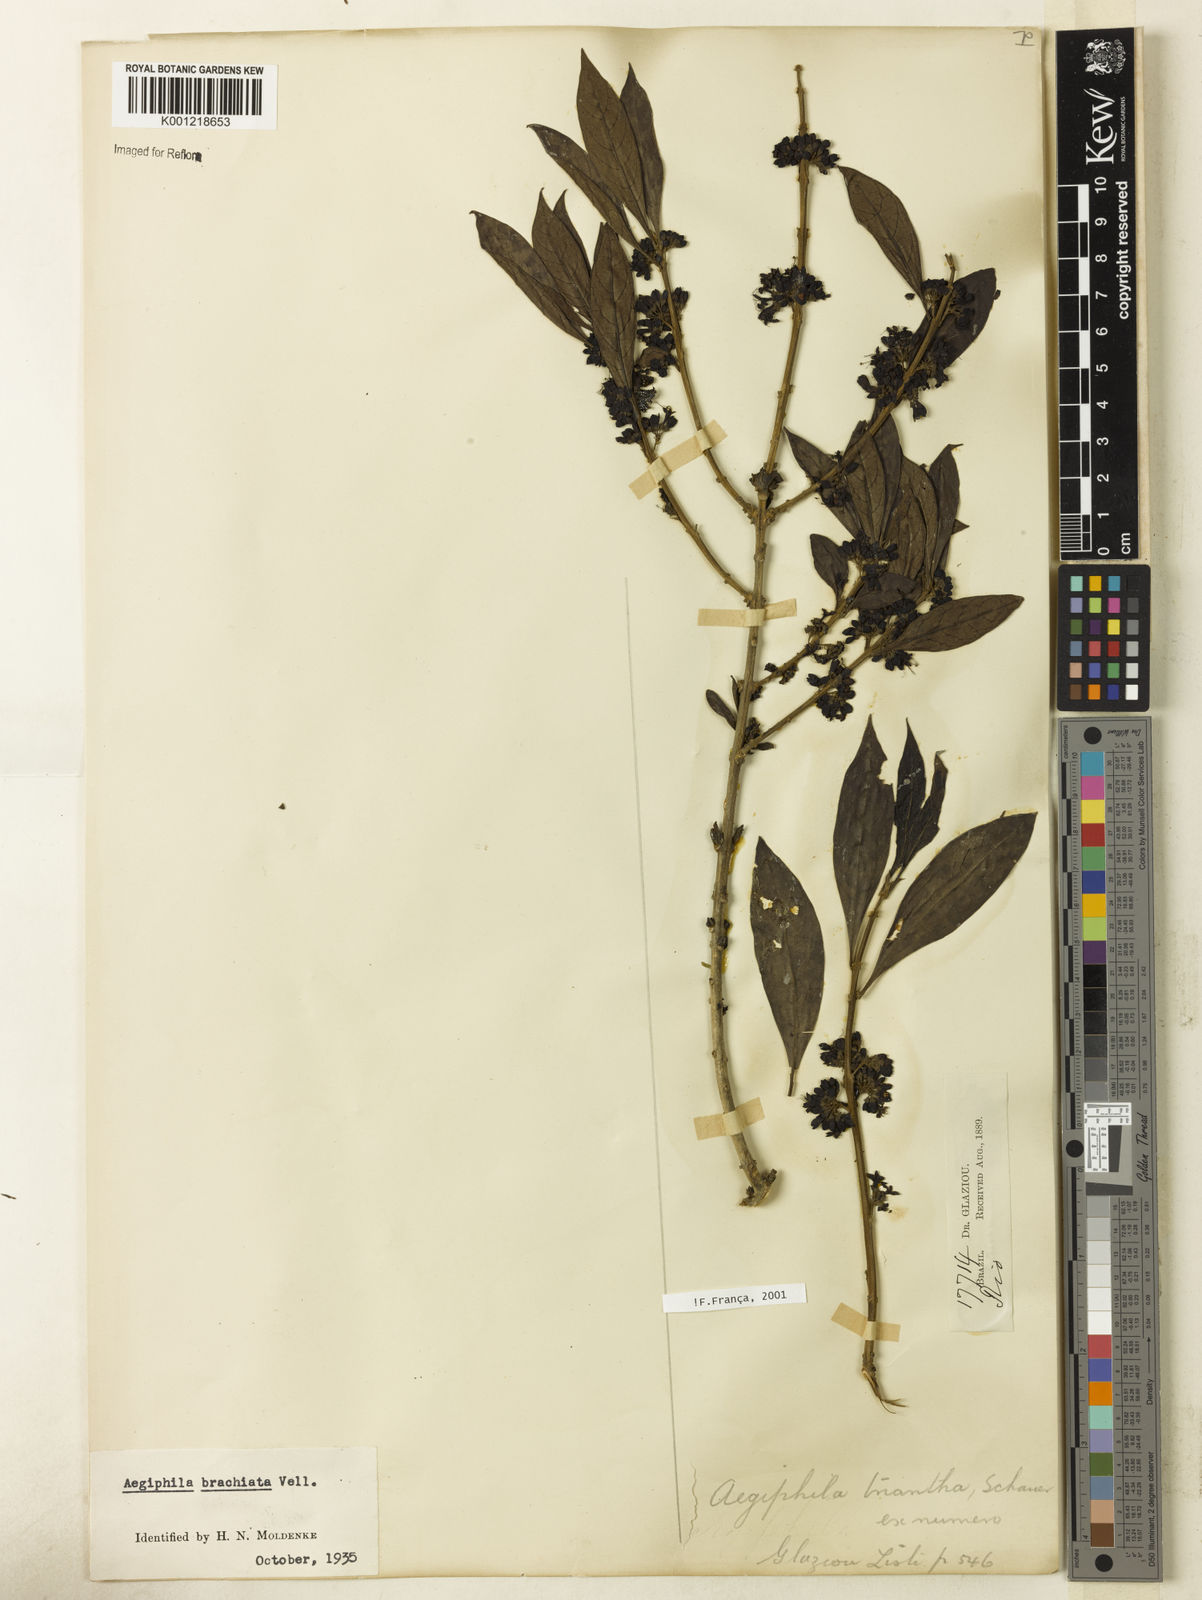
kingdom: Plantae
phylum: Tracheophyta
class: Magnoliopsida
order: Lamiales
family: Lamiaceae
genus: Aegiphila
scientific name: Aegiphila brachiata
